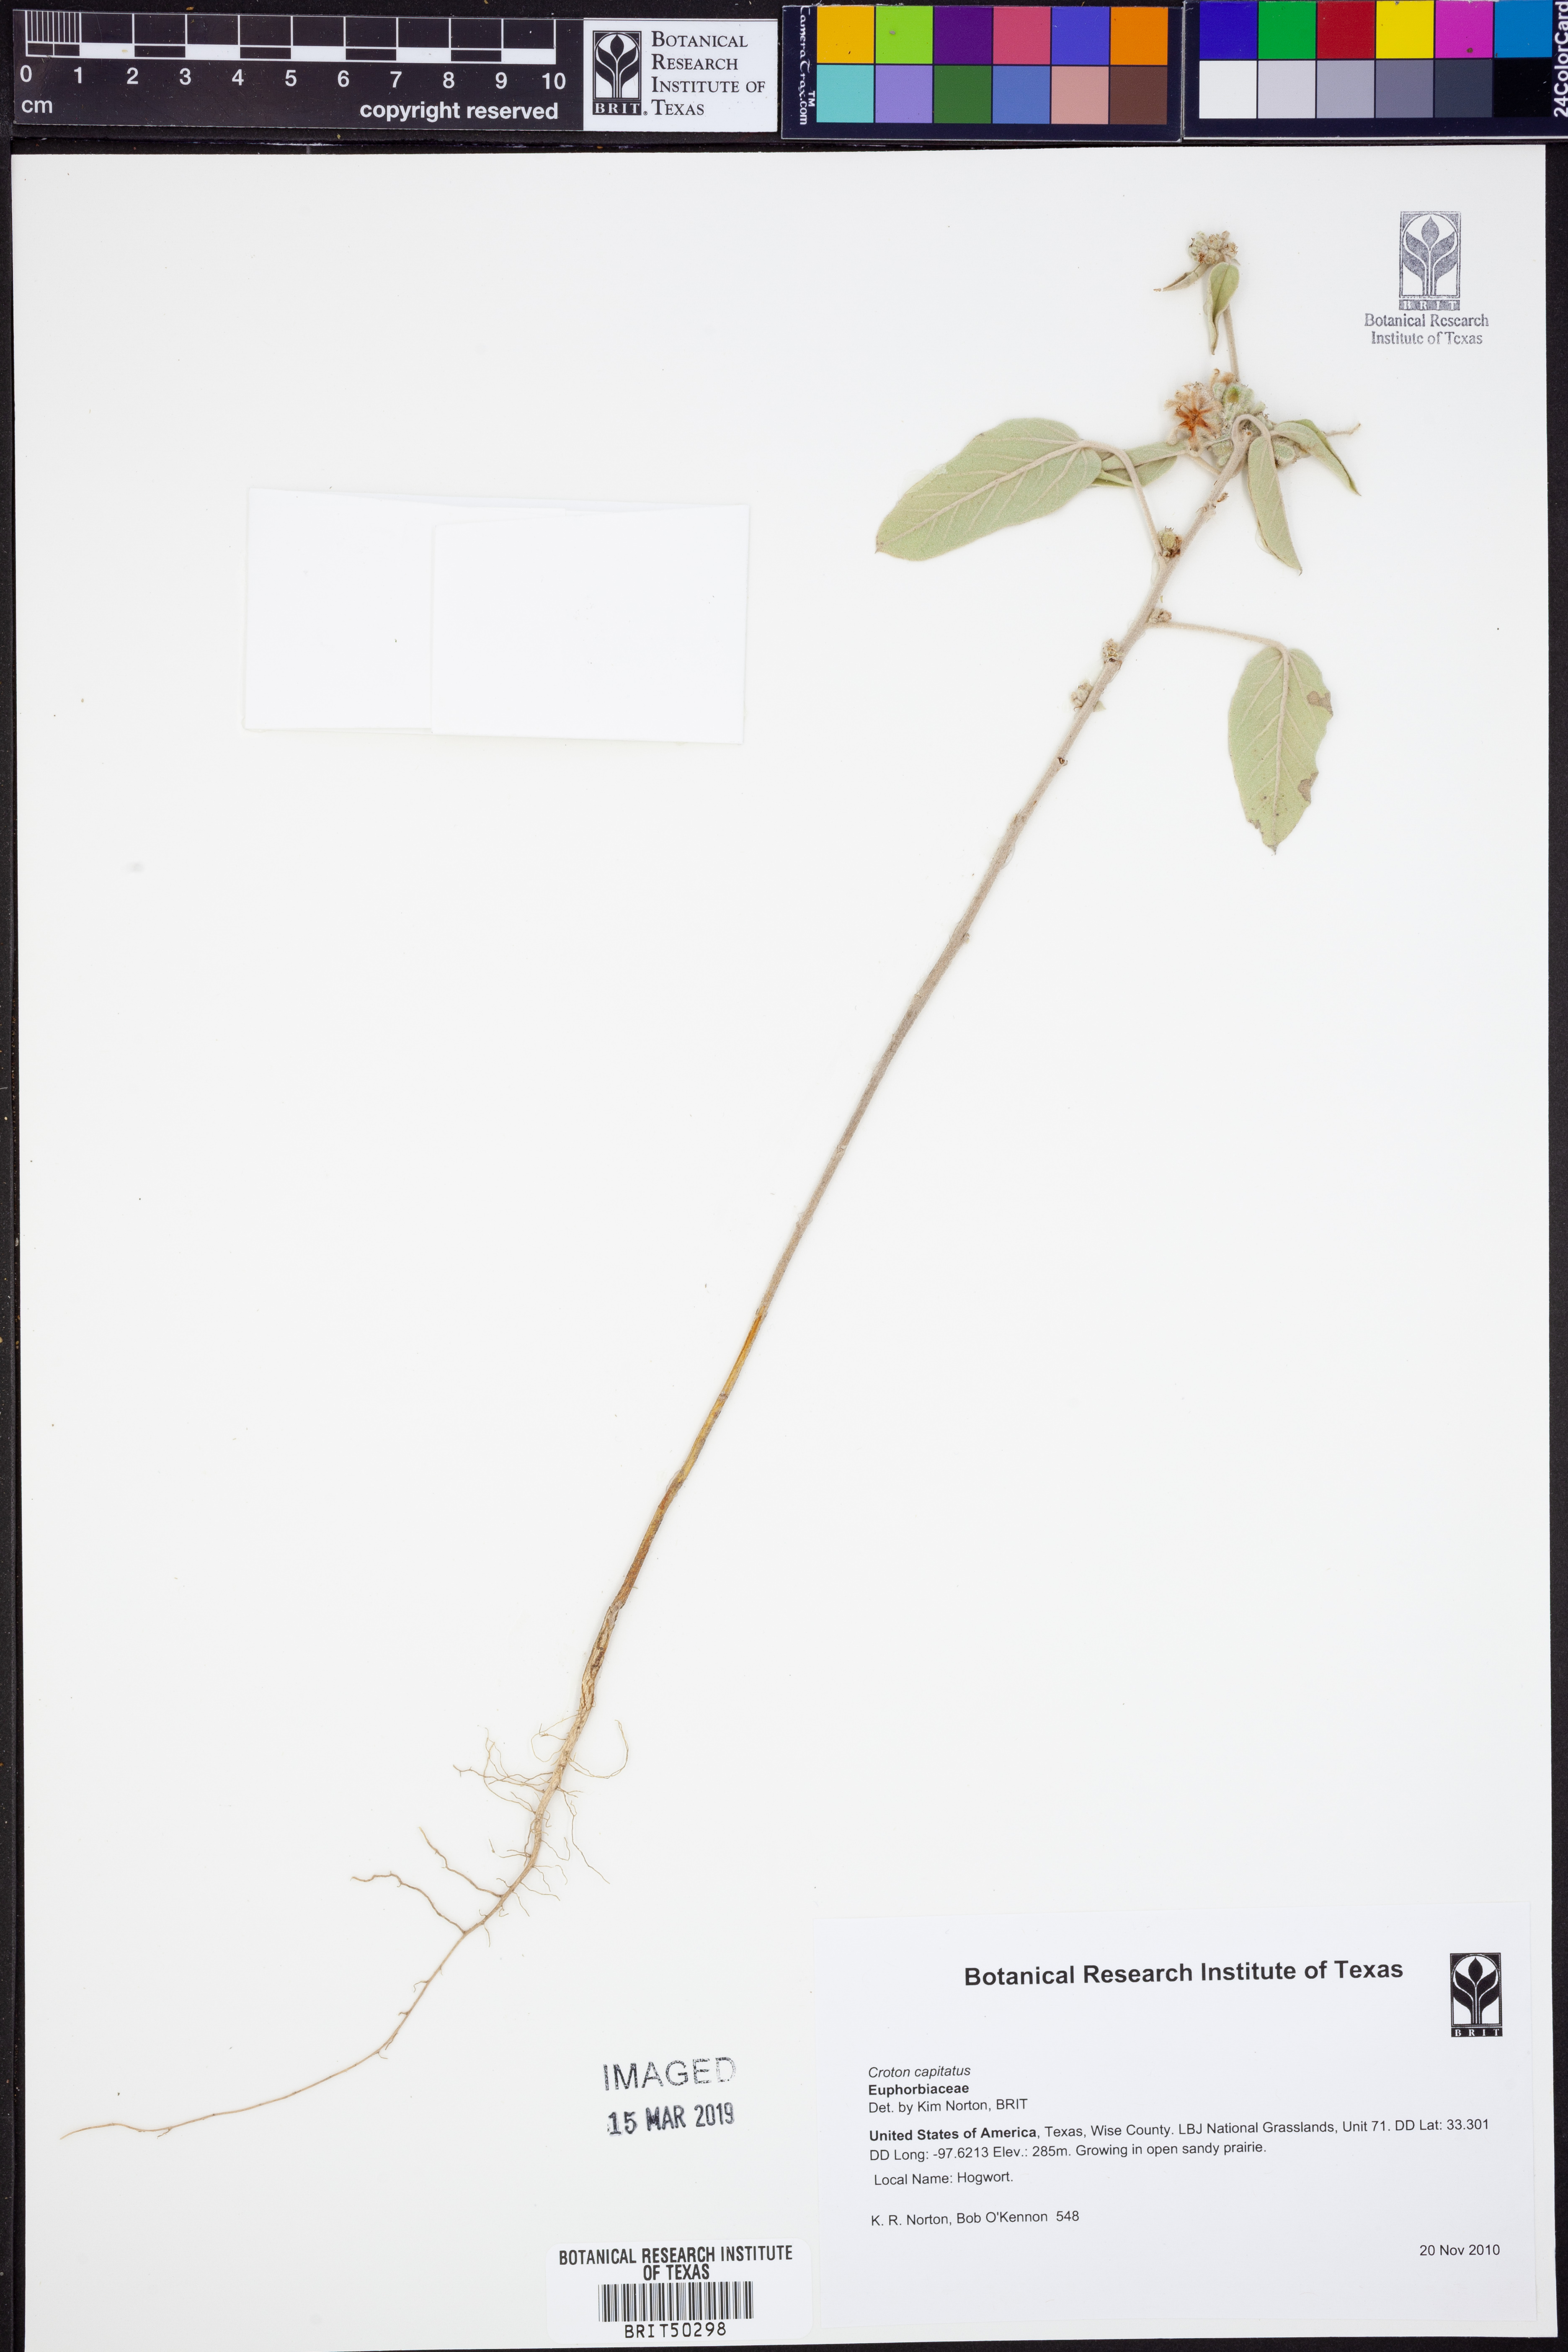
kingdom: Plantae
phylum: Tracheophyta
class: Magnoliopsida
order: Malpighiales
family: Euphorbiaceae
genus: Croton
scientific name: Croton capitatus
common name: Woolly croton
